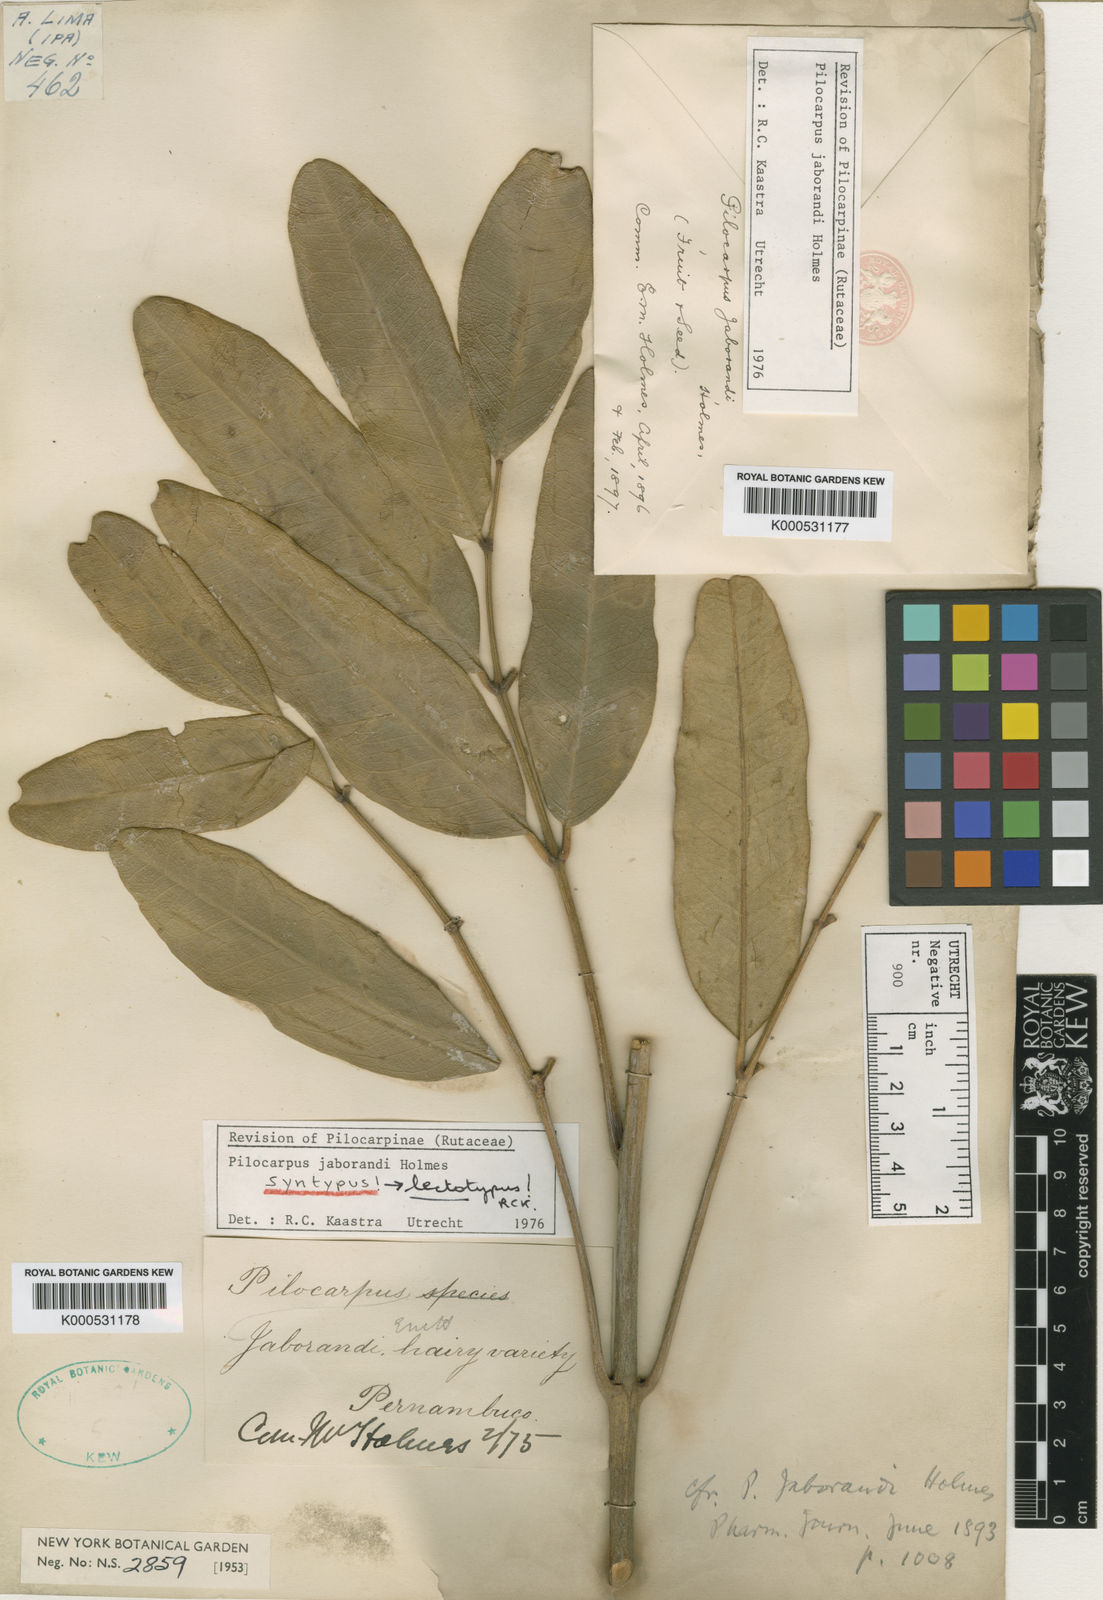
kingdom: Plantae
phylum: Tracheophyta
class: Magnoliopsida
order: Sapindales
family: Rutaceae
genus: Pilocarpus
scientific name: Pilocarpus jaborandi
